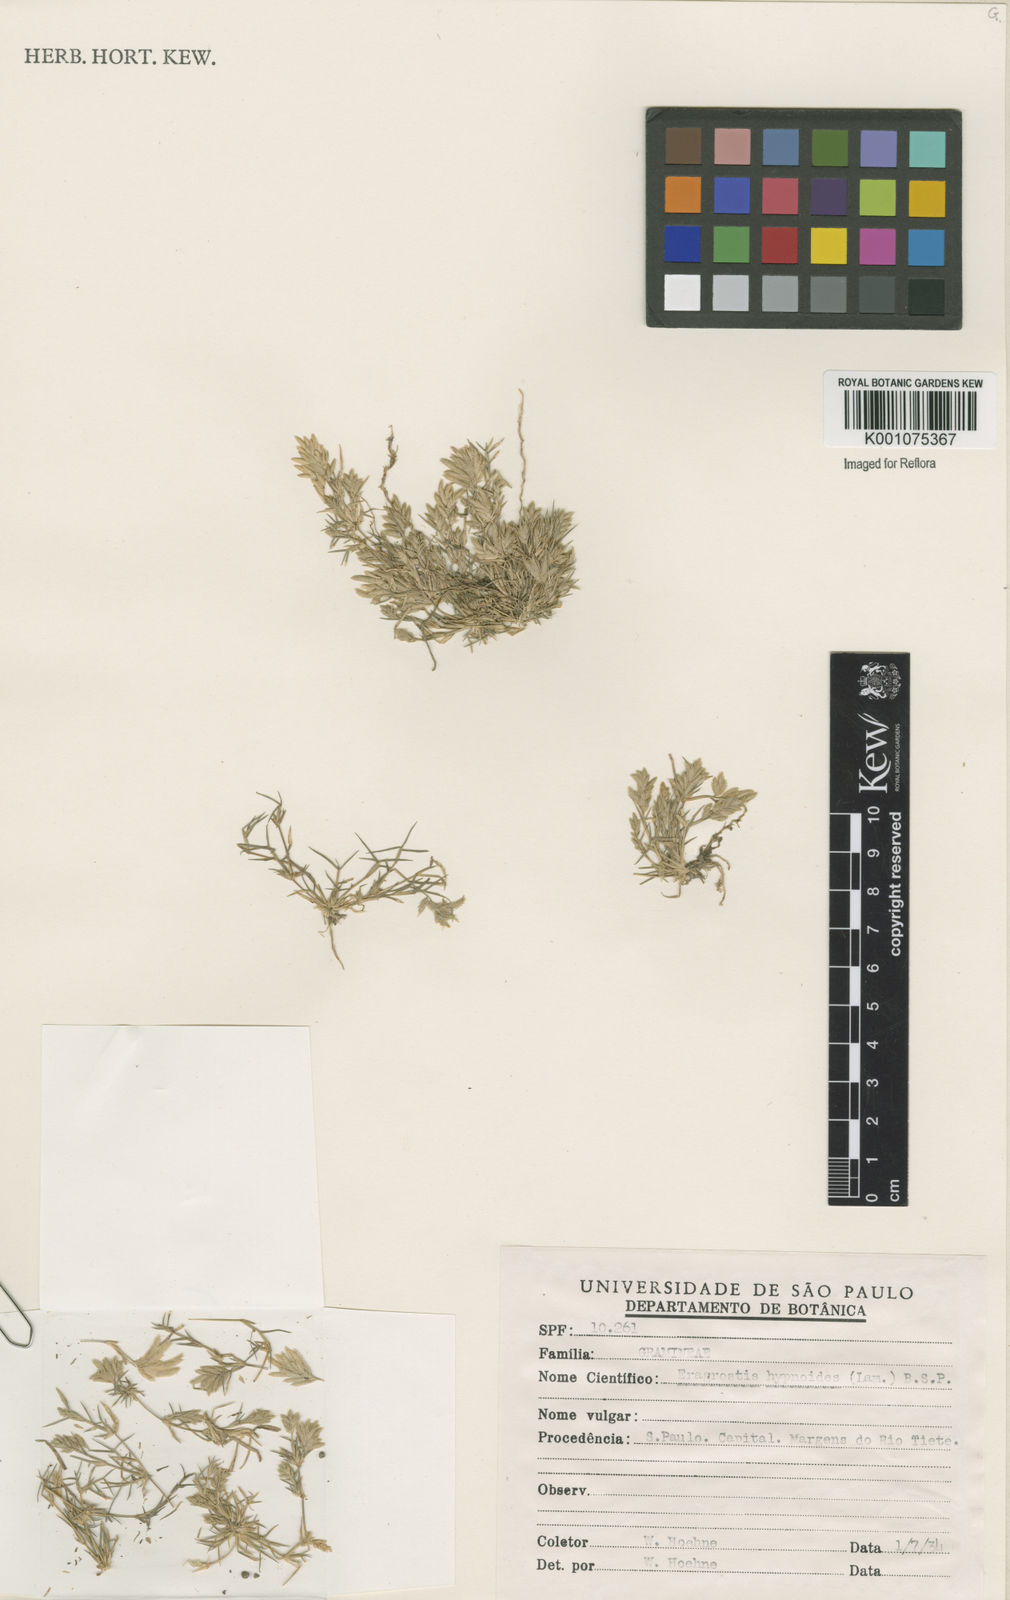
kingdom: Plantae
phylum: Tracheophyta
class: Liliopsida
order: Poales
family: Poaceae
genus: Eragrostis
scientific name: Eragrostis
